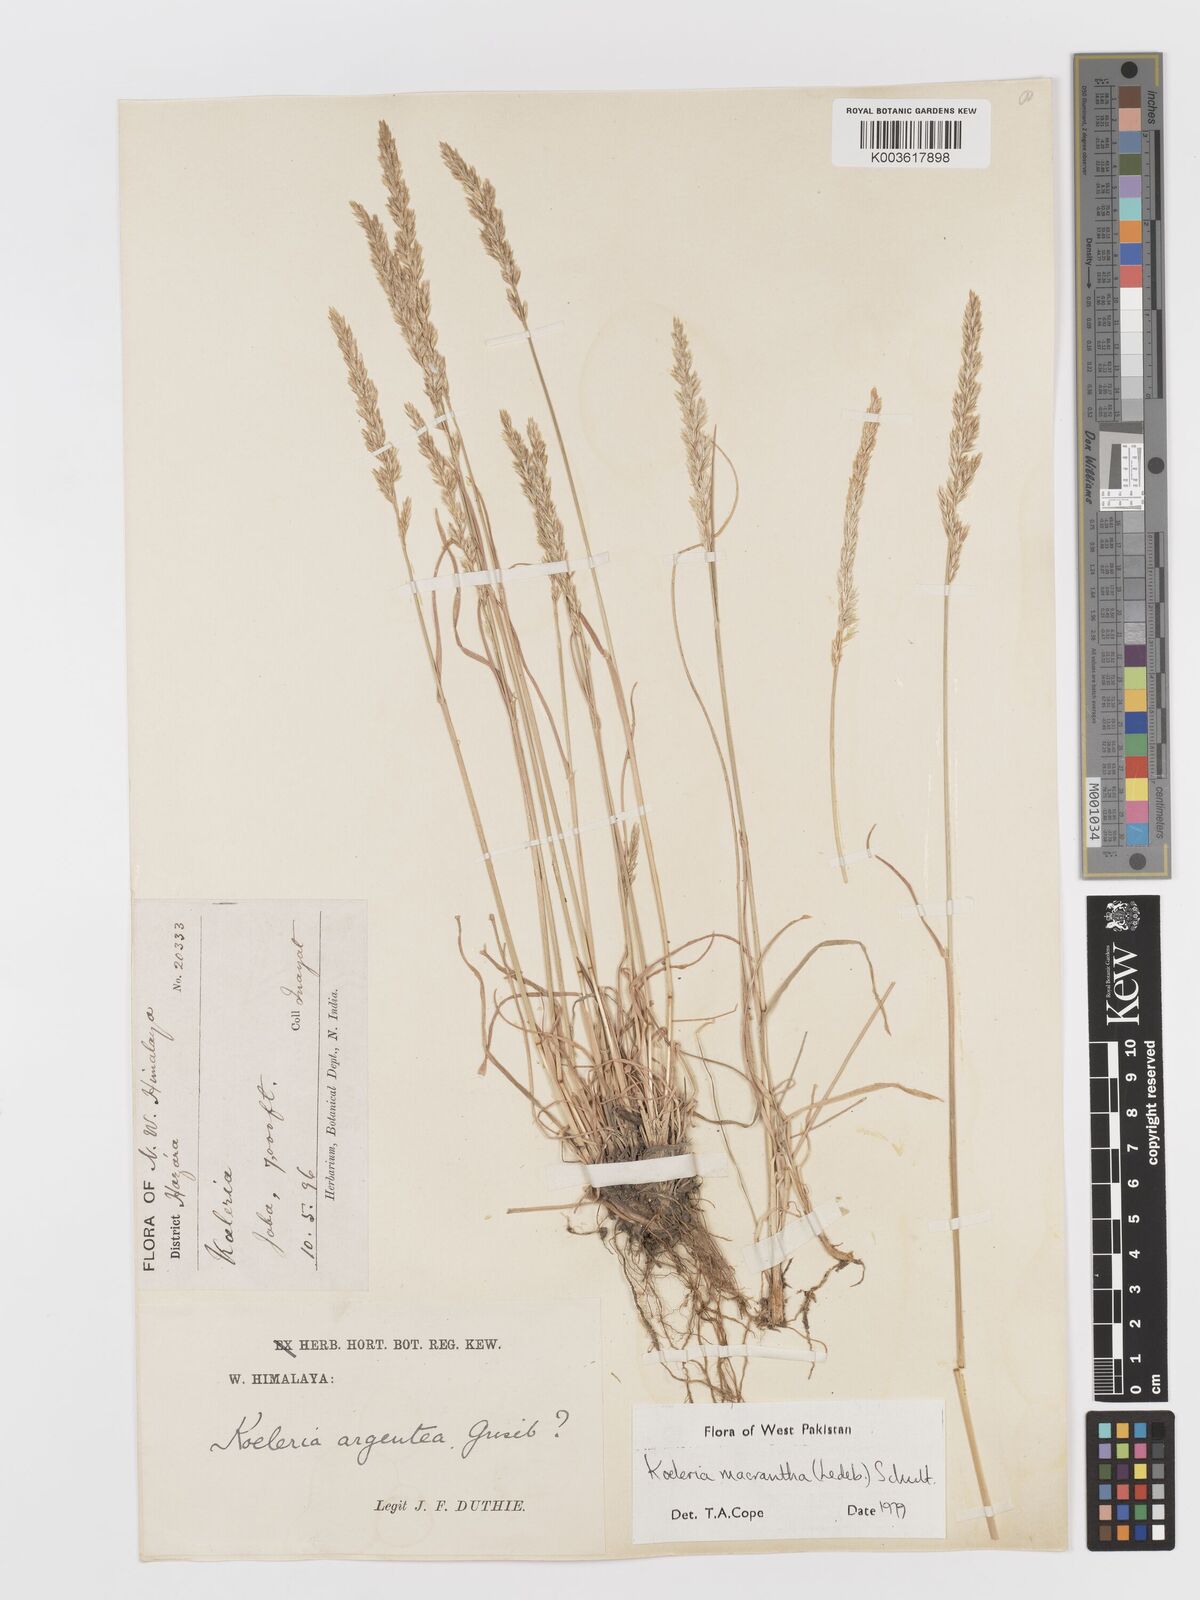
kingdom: Plantae
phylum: Tracheophyta
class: Liliopsida
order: Poales
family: Poaceae
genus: Koeleria
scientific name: Koeleria
